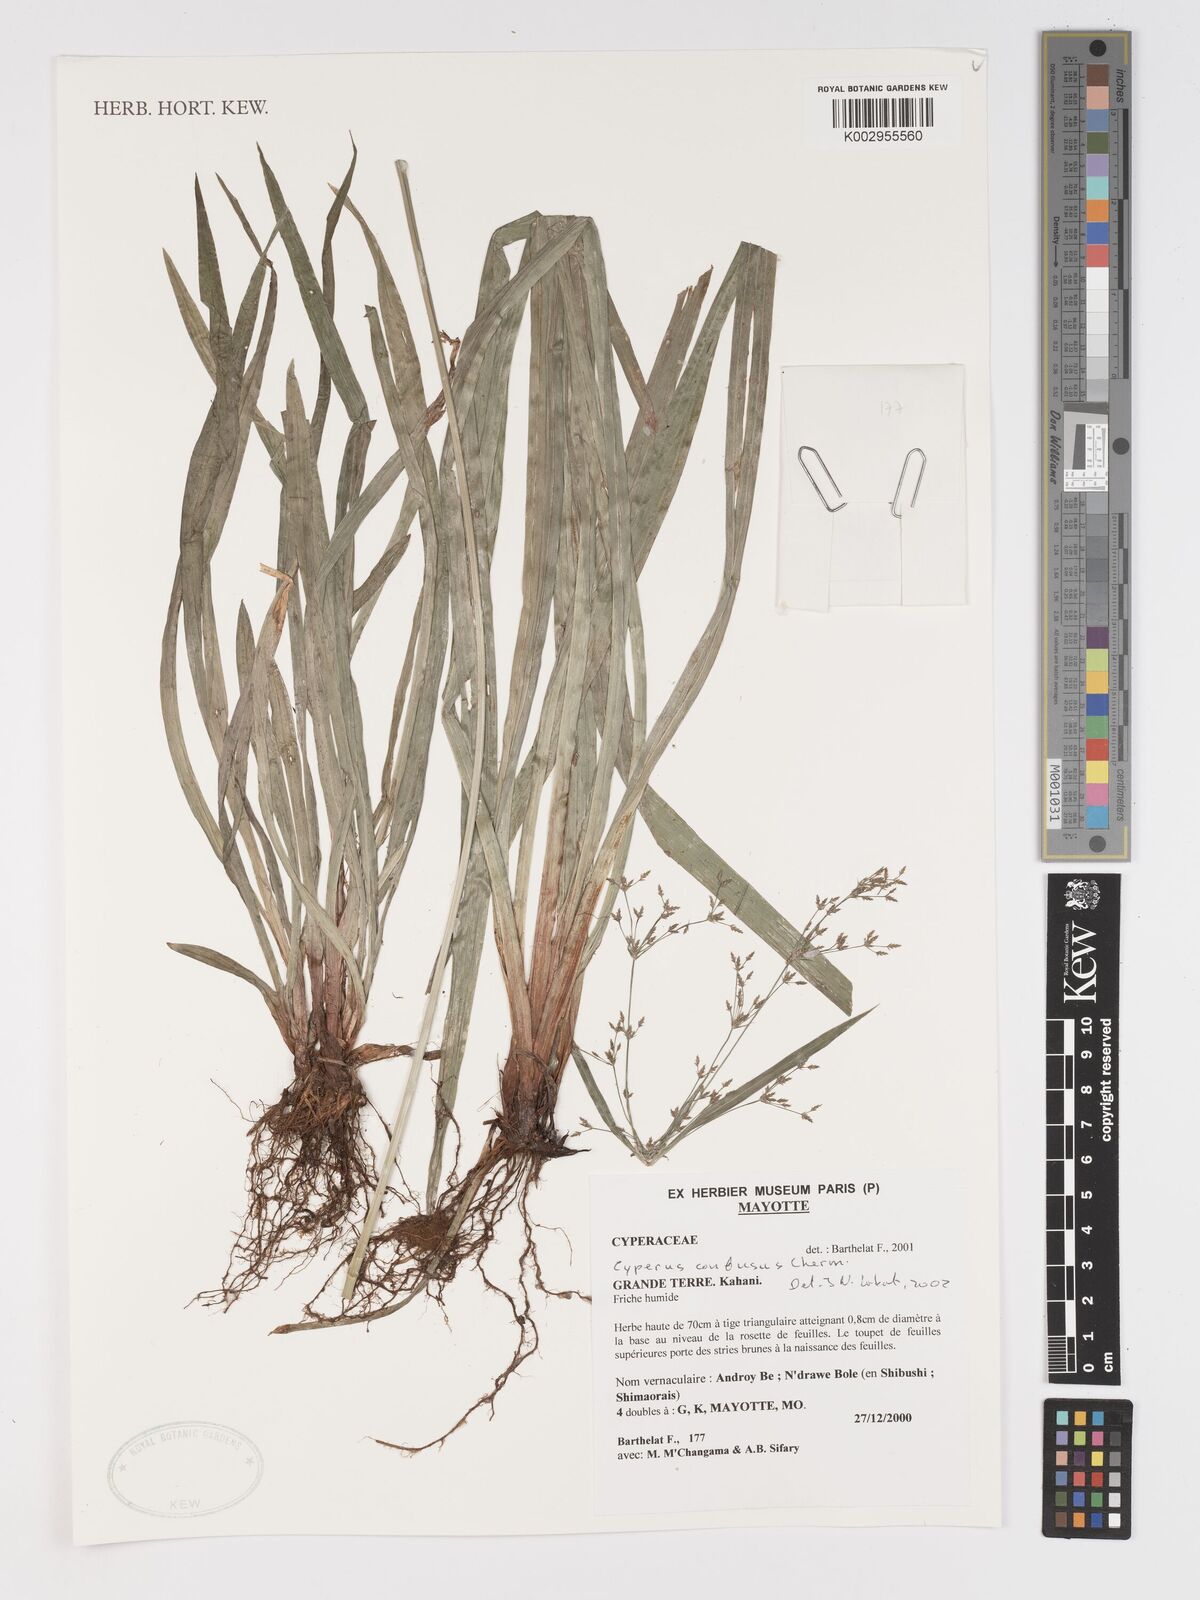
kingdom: Plantae
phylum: Tracheophyta
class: Liliopsida
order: Poales
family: Cyperaceae
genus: Cyperus
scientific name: Cyperus longifolius
